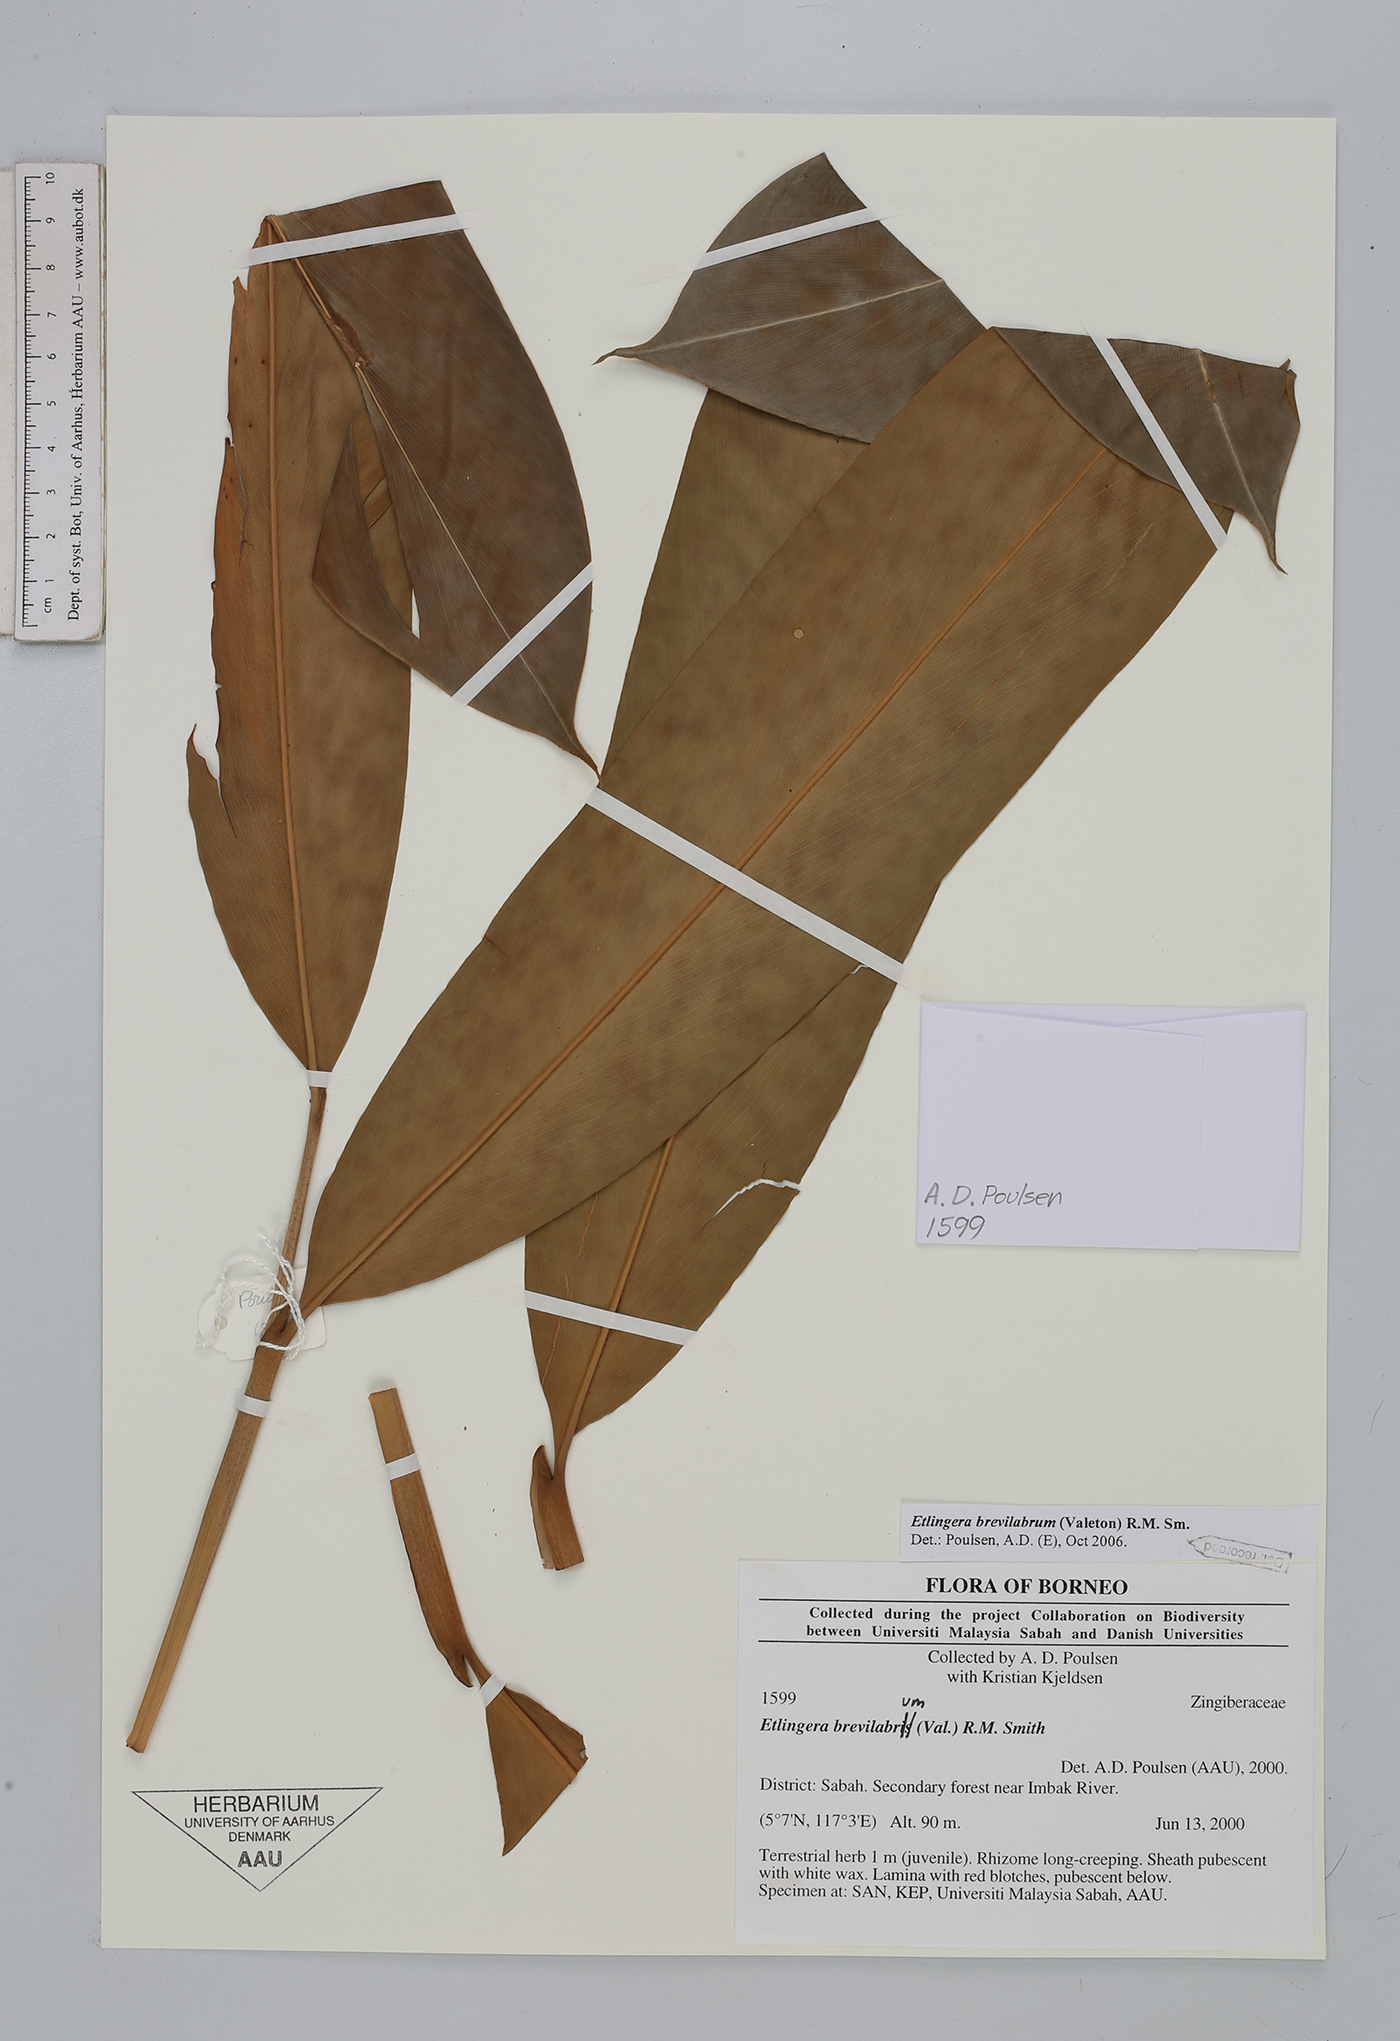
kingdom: Plantae
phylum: Tracheophyta
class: Liliopsida
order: Zingiberales
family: Zingiberaceae
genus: Etlingera
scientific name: Etlingera brevilabrum
